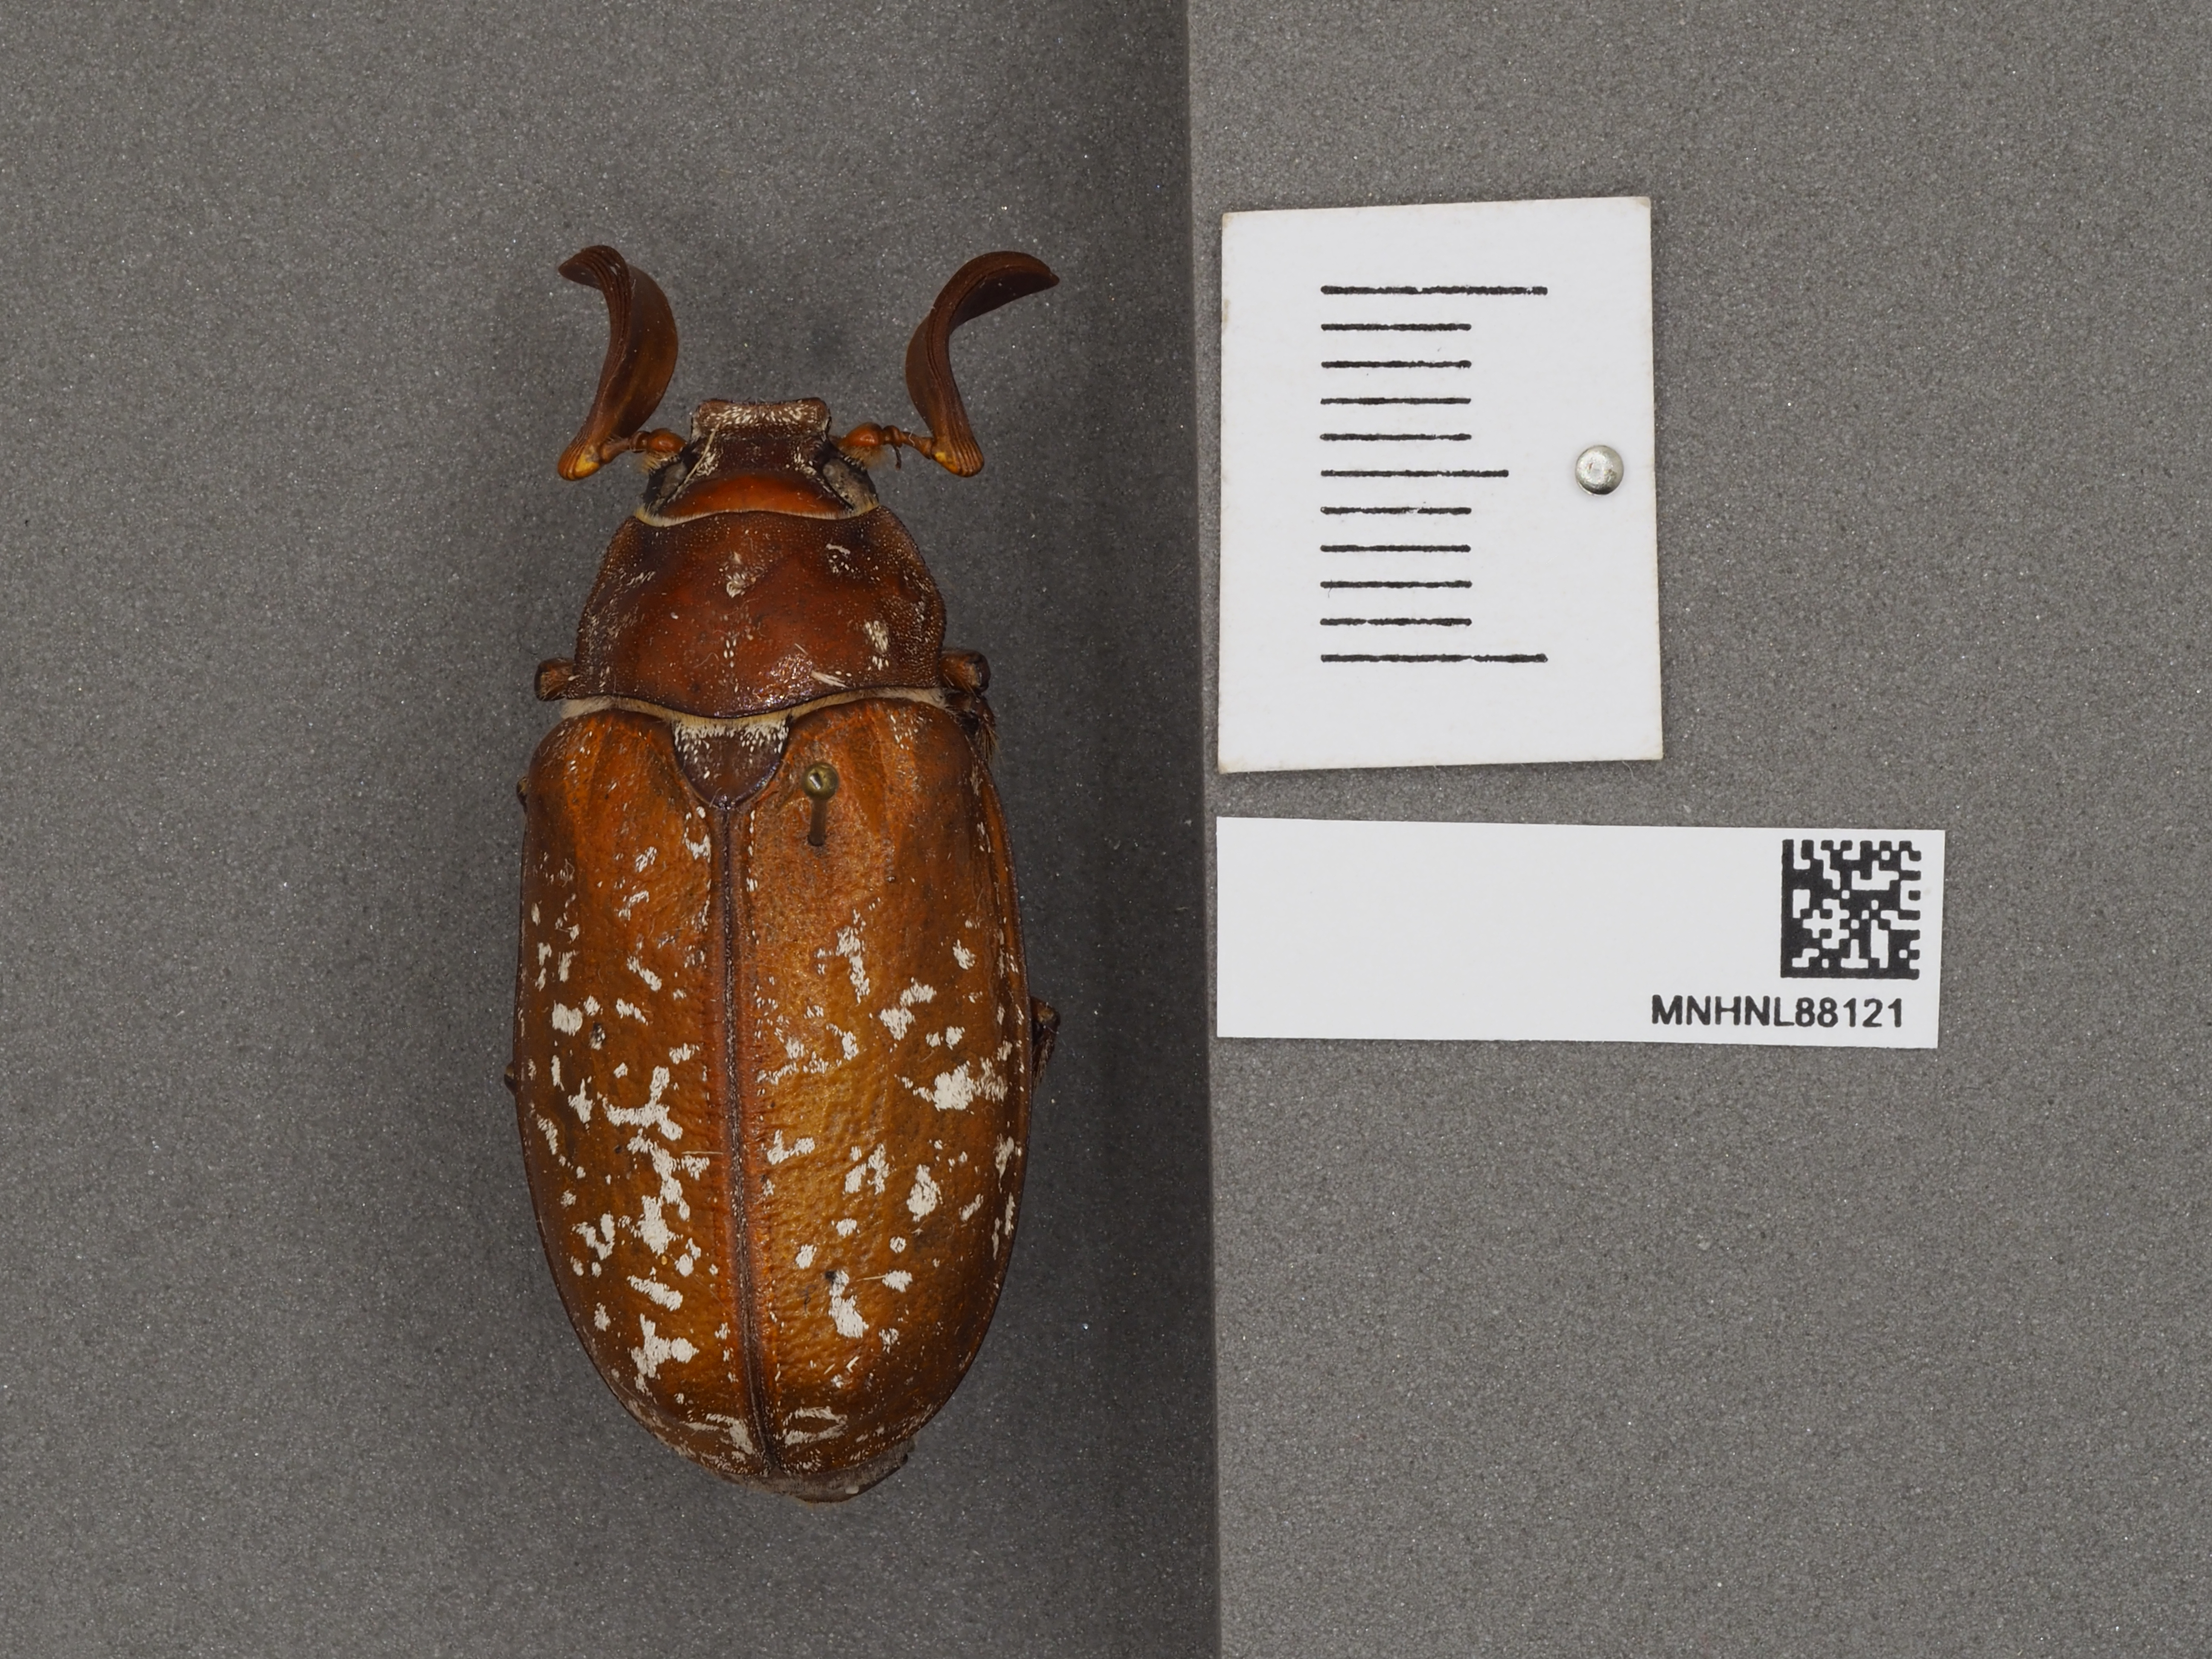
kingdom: Animalia
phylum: Arthropoda
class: Insecta
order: Coleoptera
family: Scarabaeidae
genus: Polyphylla
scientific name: Polyphylla fullo
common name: Pine chafer
